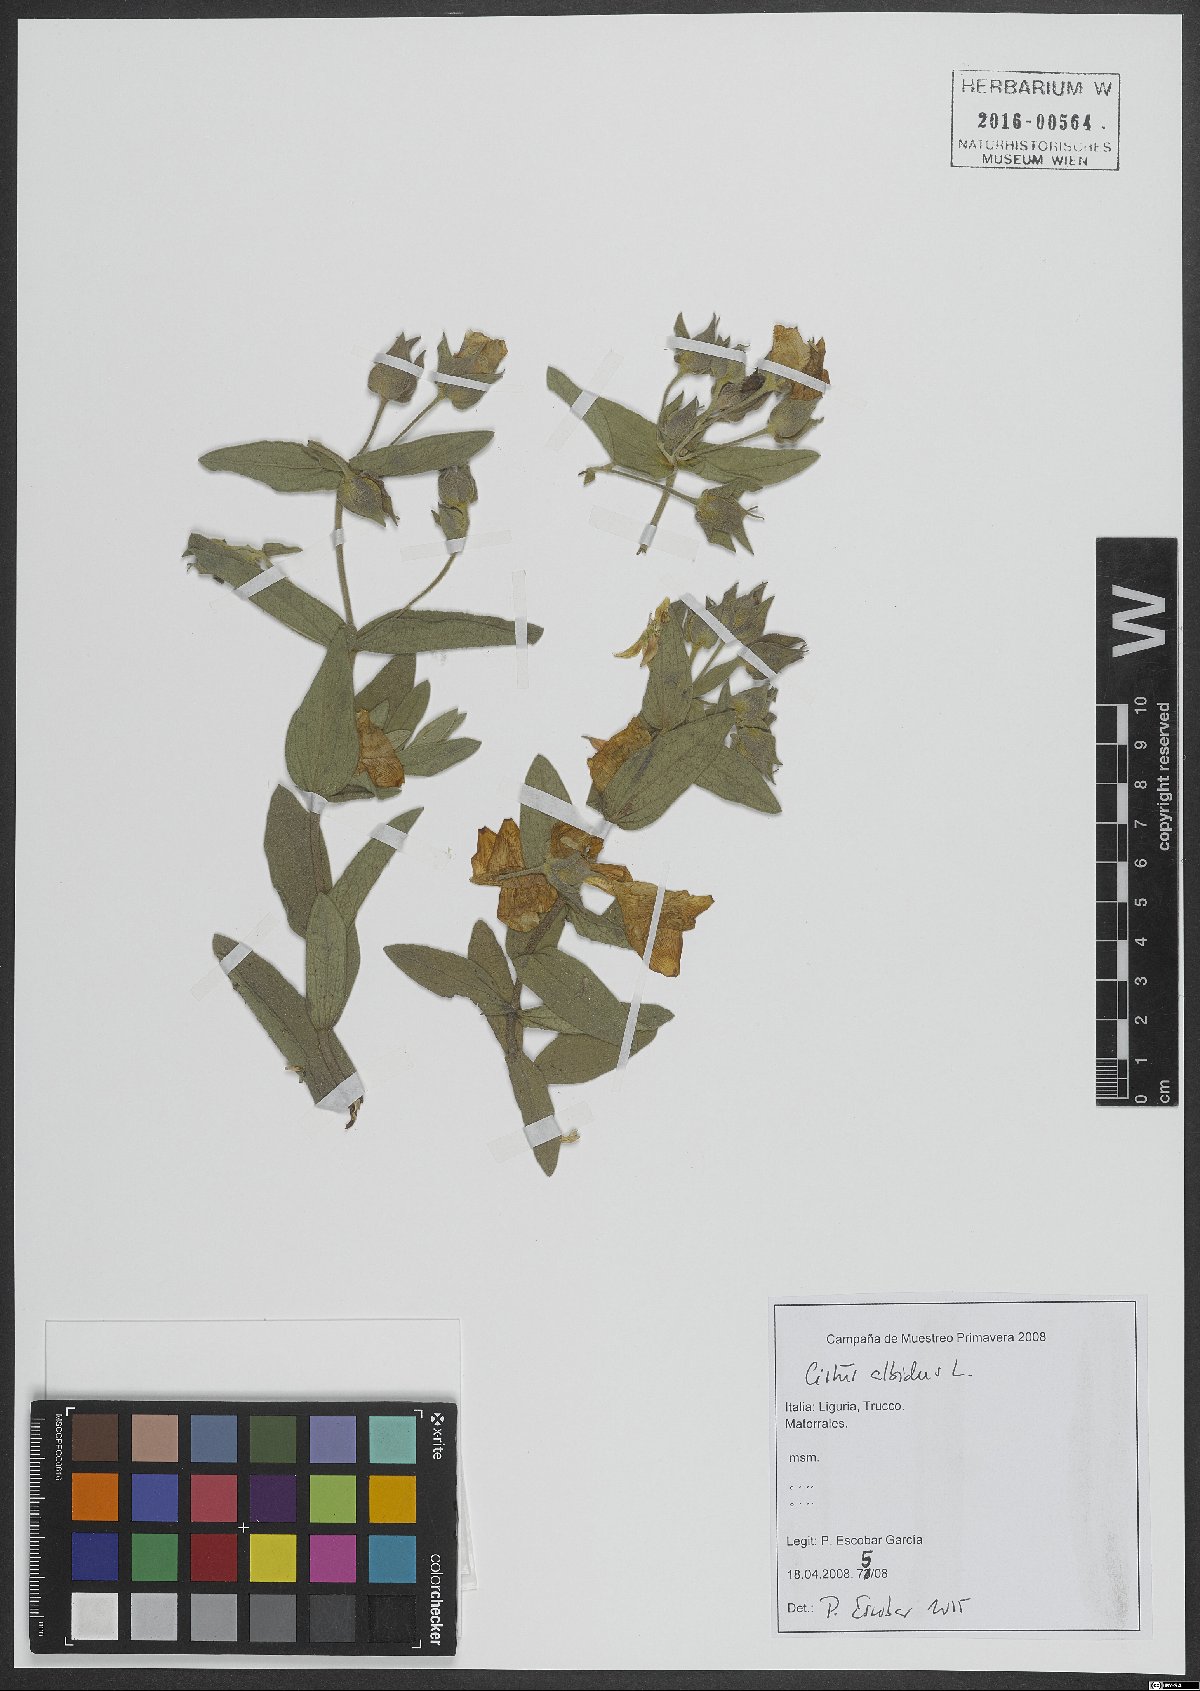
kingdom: Plantae
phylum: Tracheophyta
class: Magnoliopsida
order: Malvales
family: Cistaceae
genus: Cistus
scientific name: Cistus albidus
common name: White-leaf rock-rose
